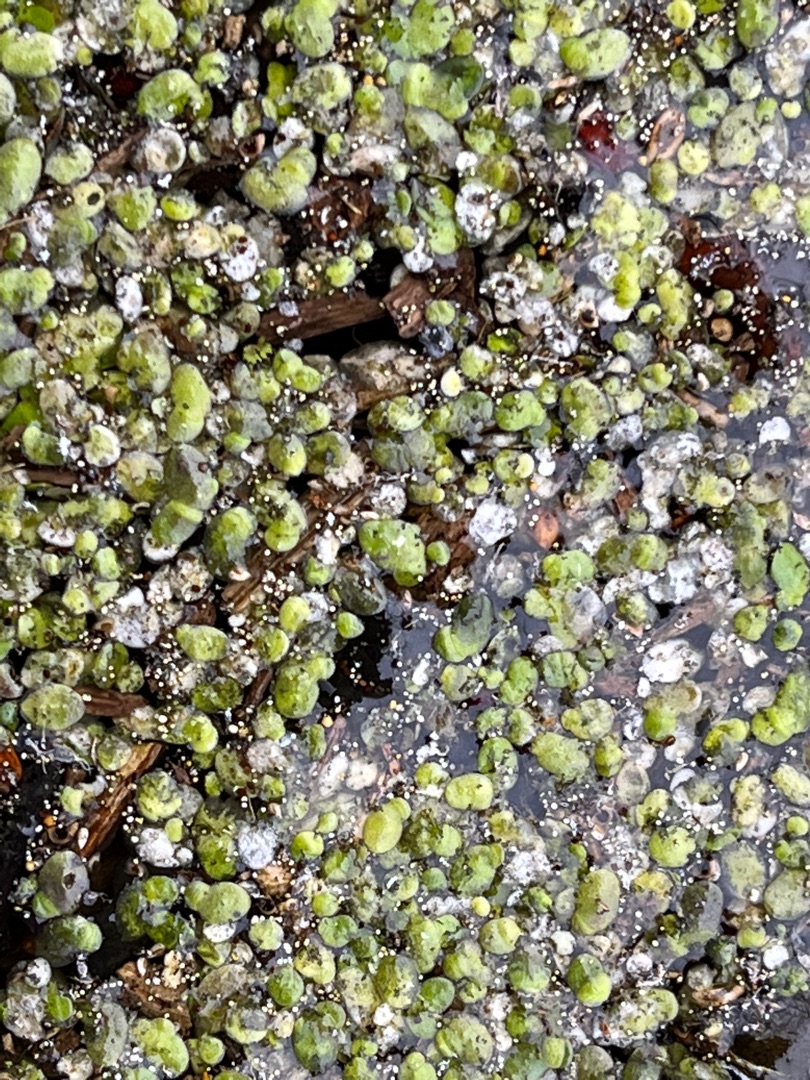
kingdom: Plantae
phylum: Tracheophyta
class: Liliopsida
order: Alismatales
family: Araceae
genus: Lemna
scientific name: Lemna minor
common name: Liden andemad
